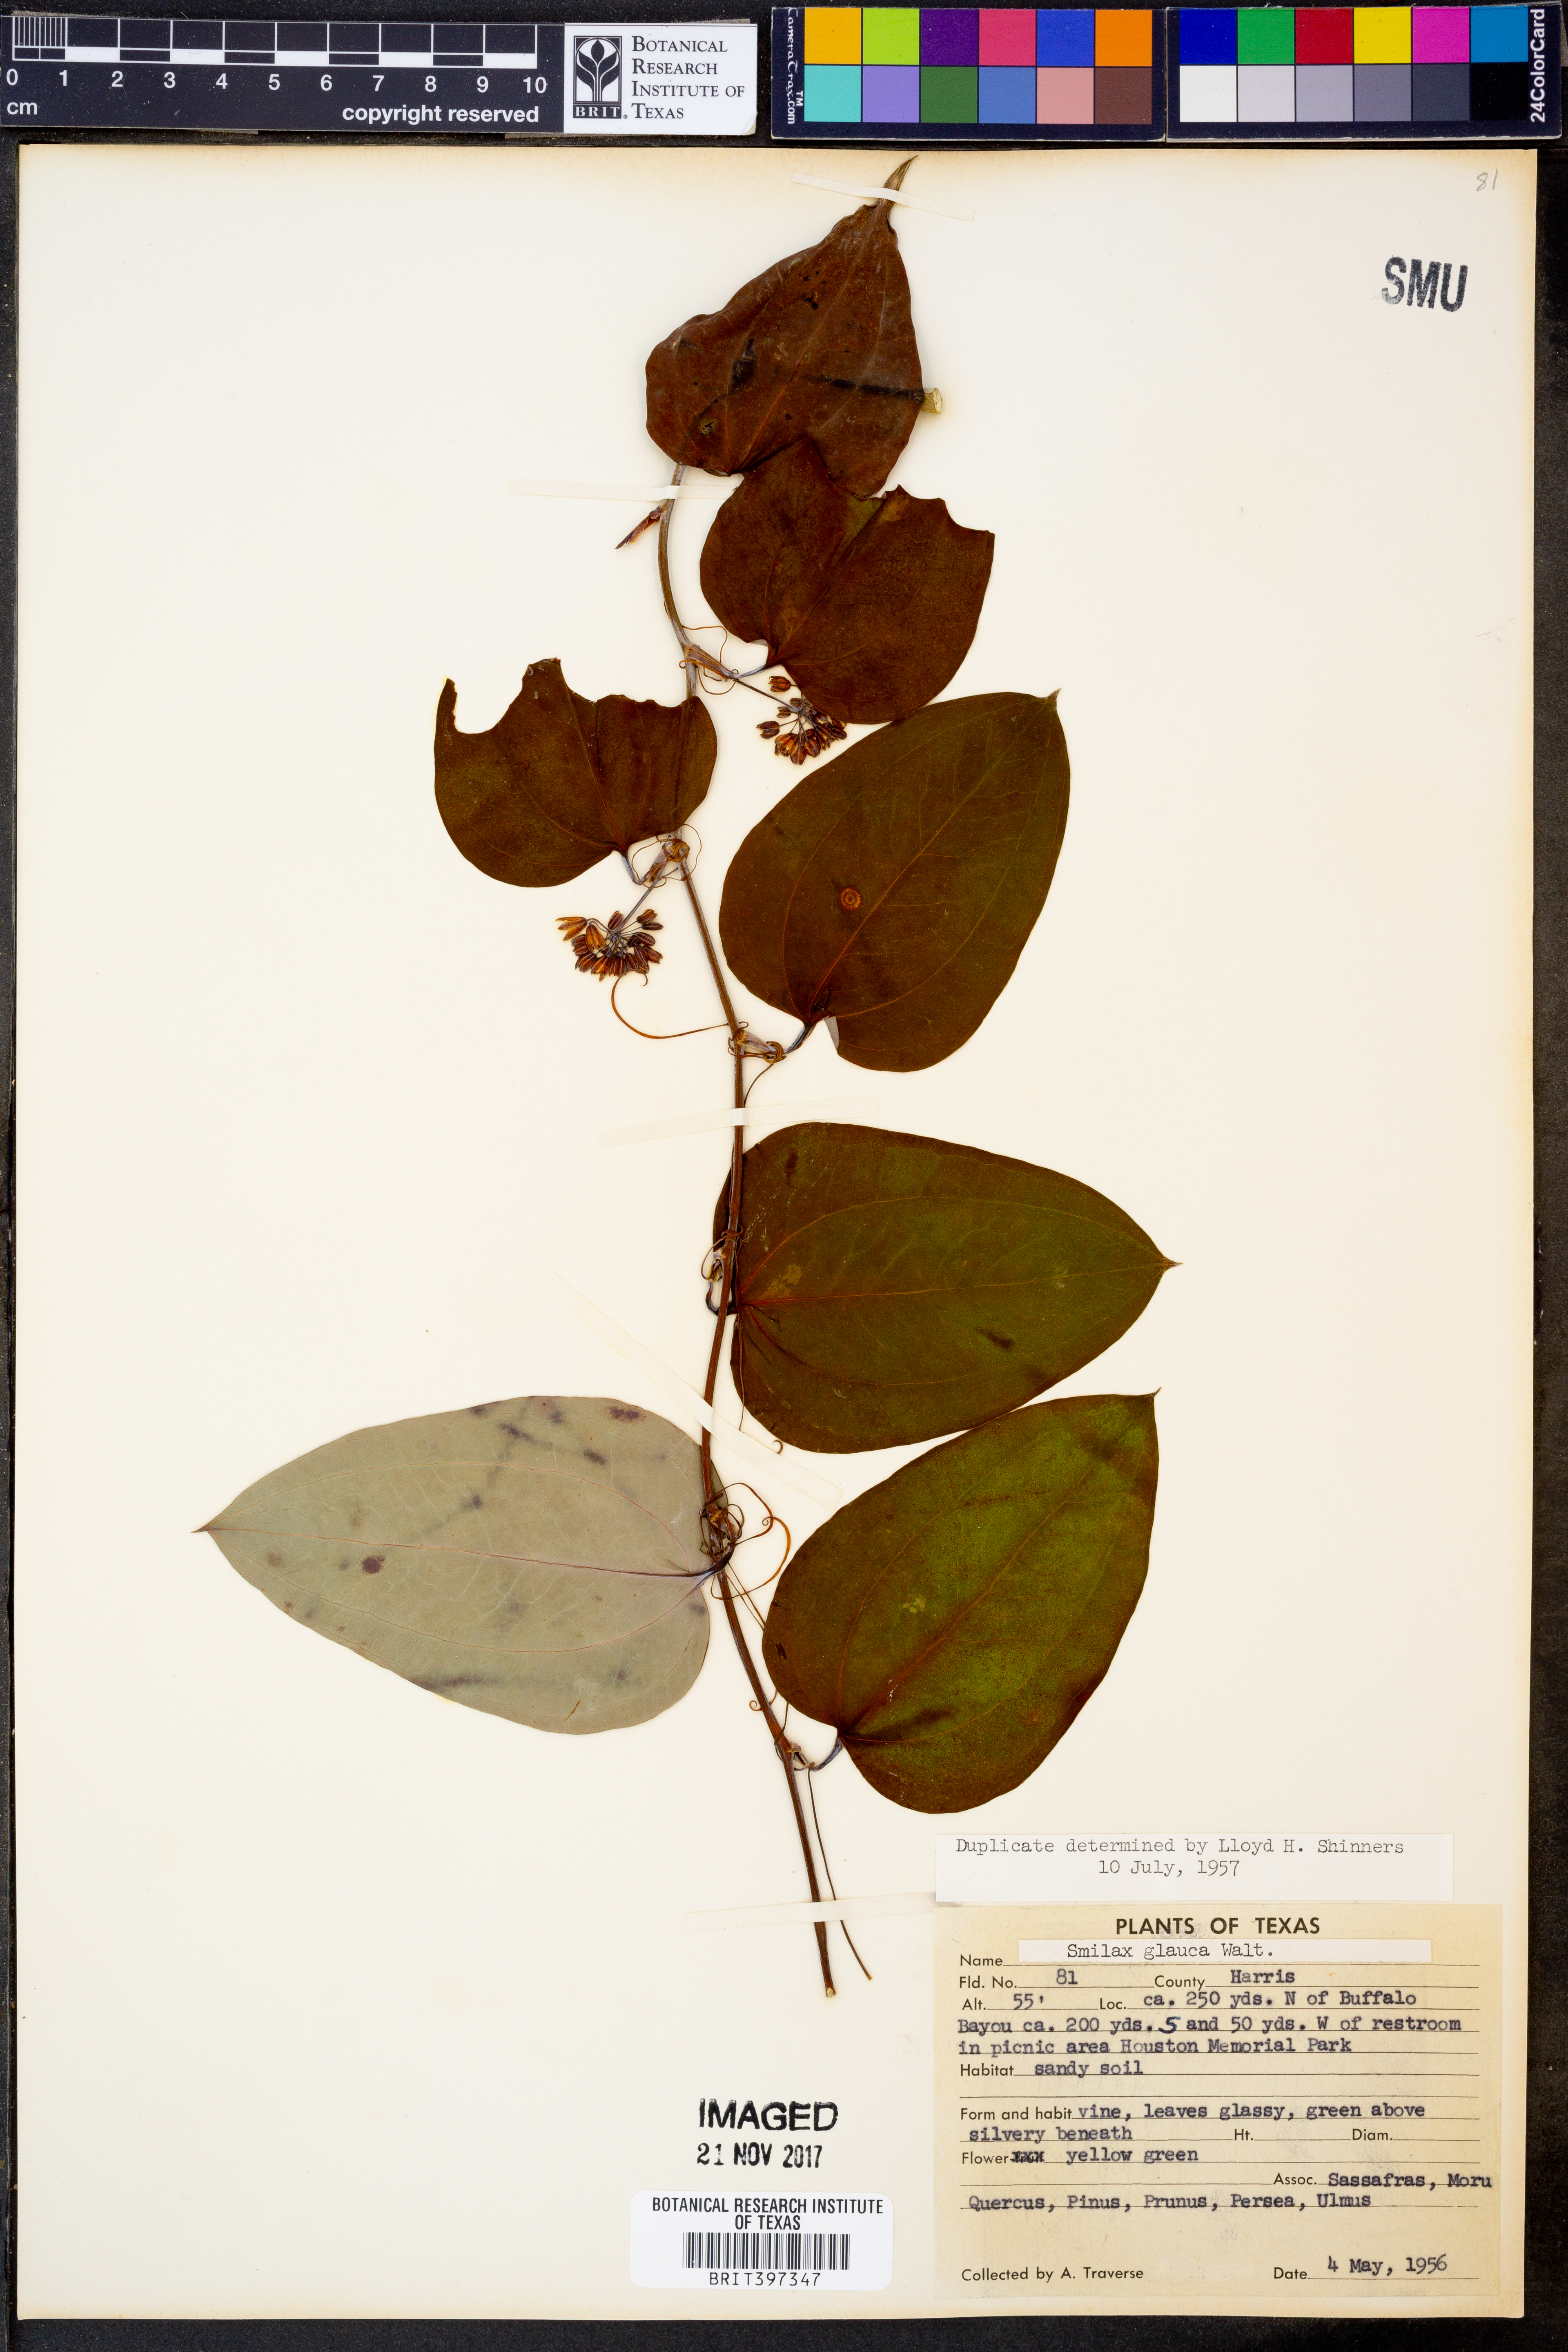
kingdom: Plantae
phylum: Tracheophyta
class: Liliopsida
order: Liliales
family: Smilacaceae
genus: Smilax
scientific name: Smilax glauca
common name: Cat greenbrier
